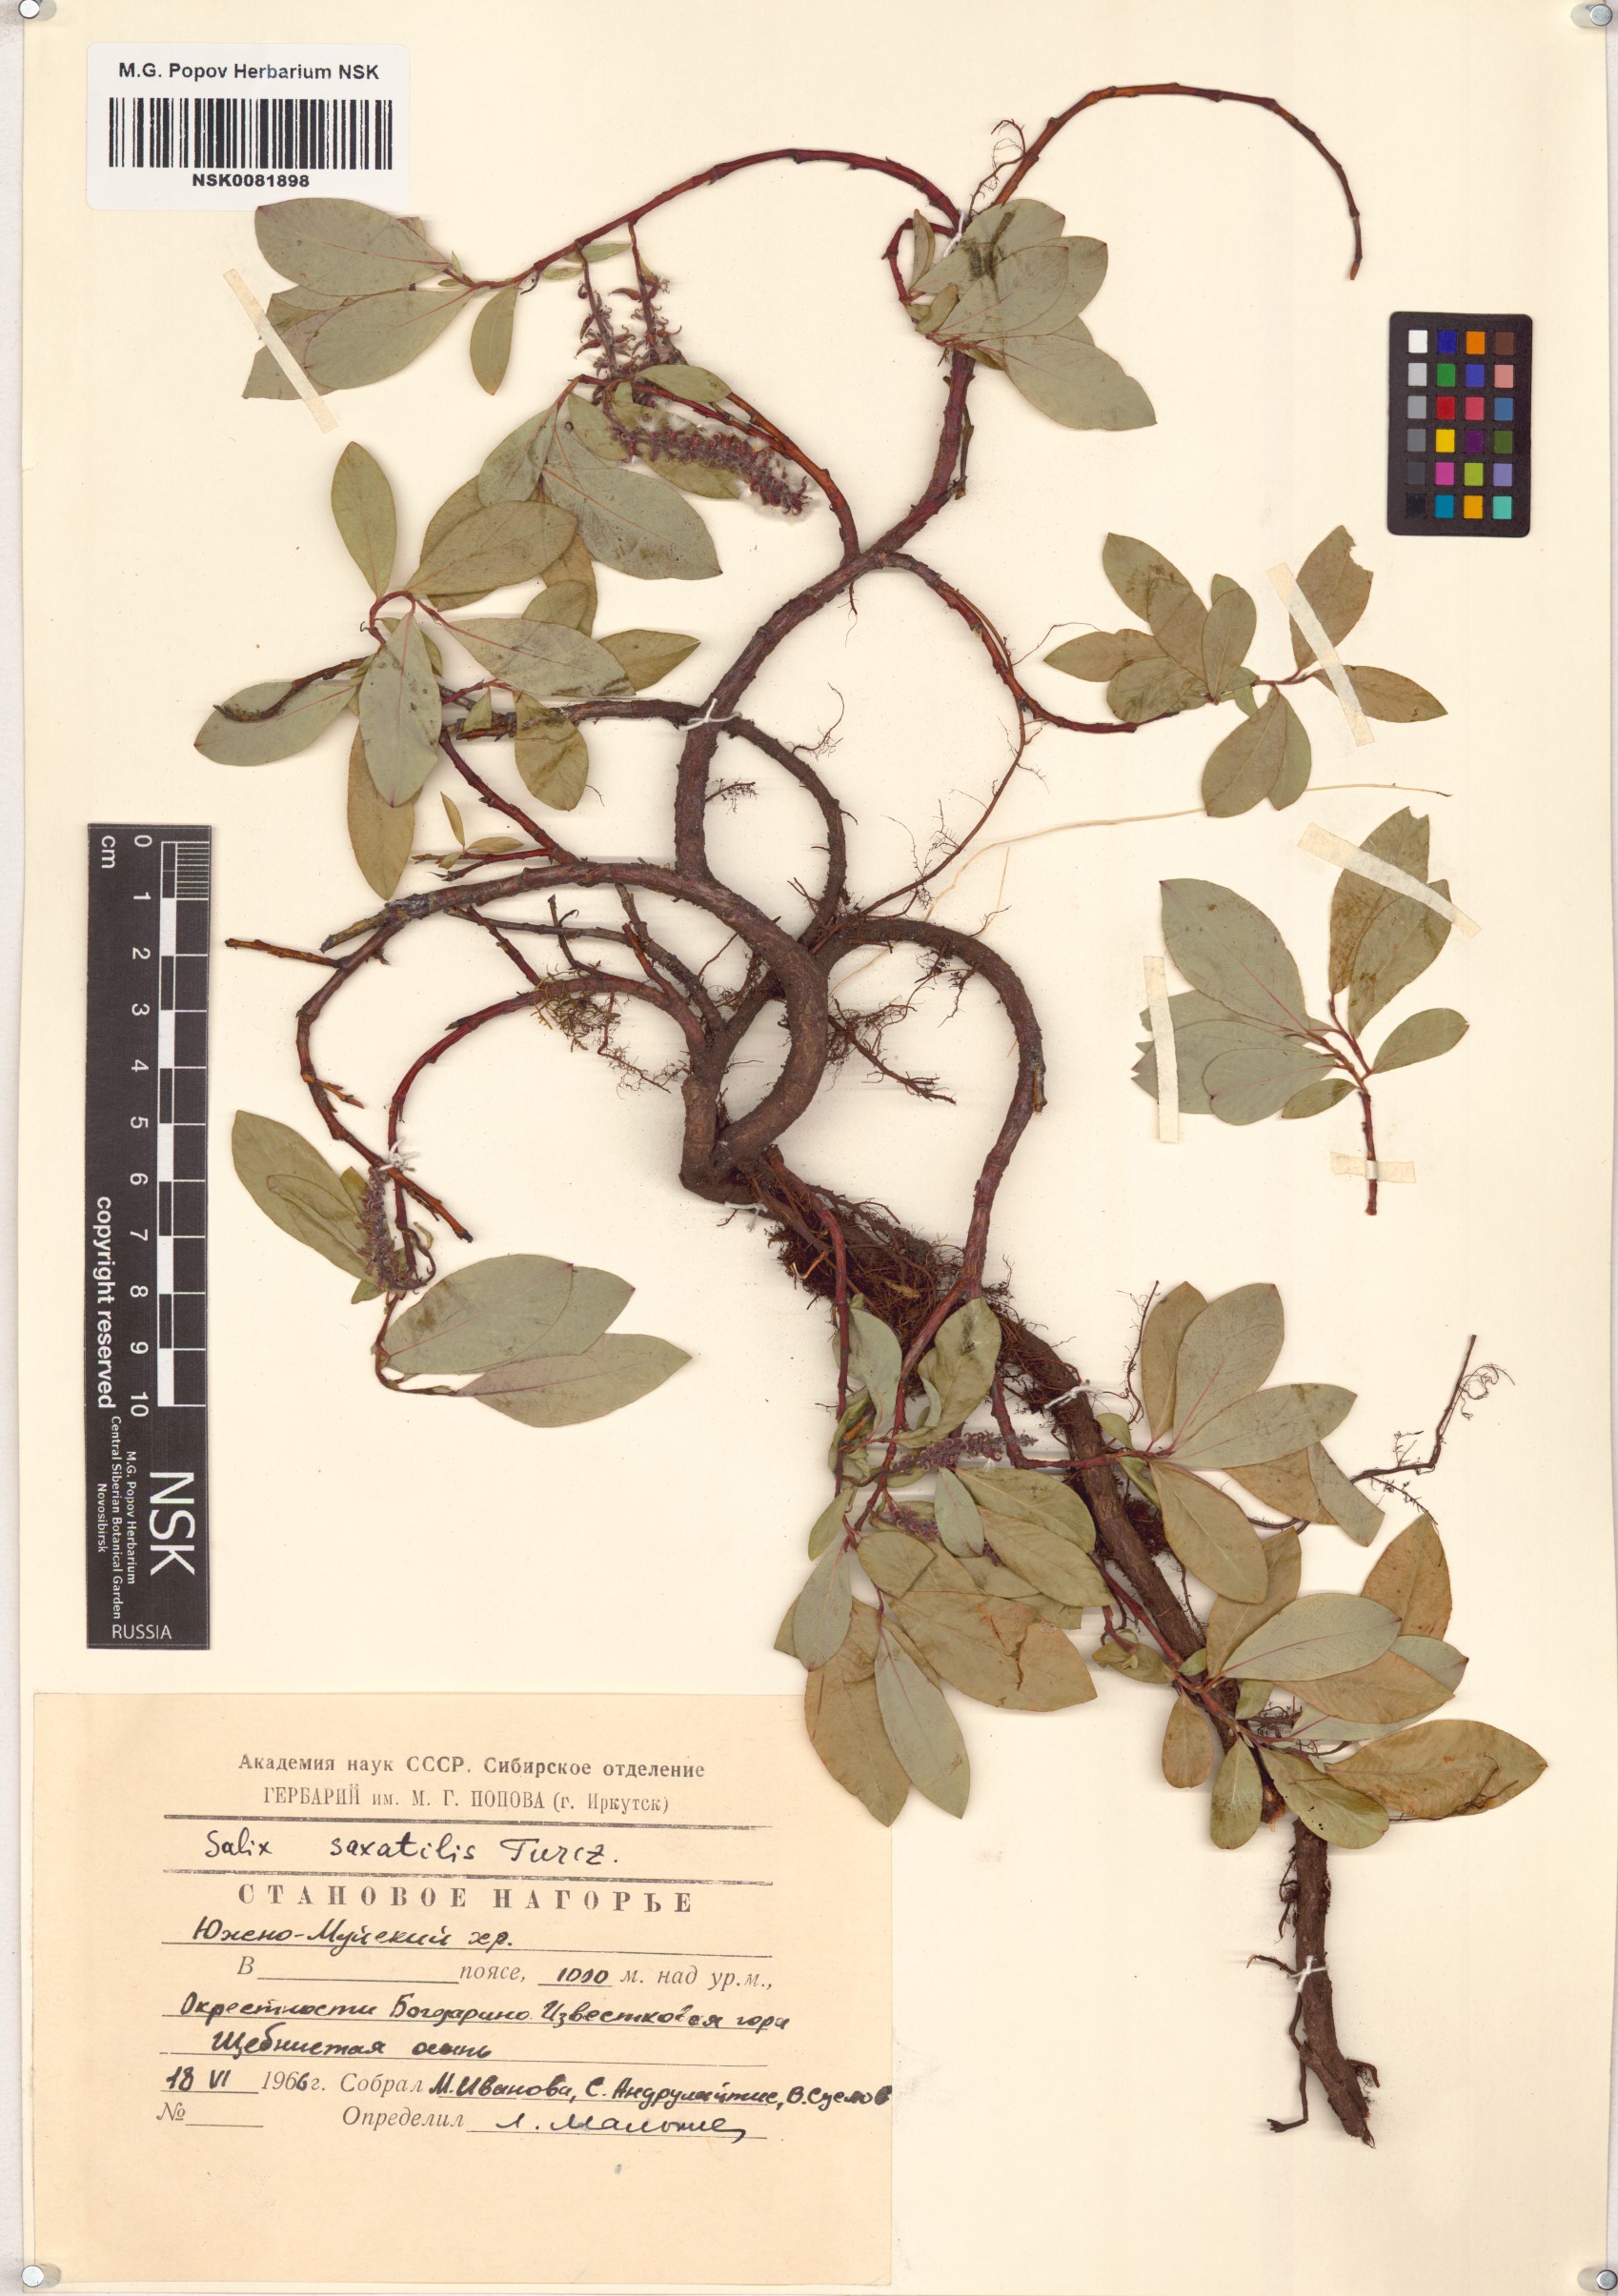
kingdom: Plantae
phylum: Tracheophyta
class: Magnoliopsida
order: Malpighiales
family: Salicaceae
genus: Salix
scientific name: Salix saxatilis
